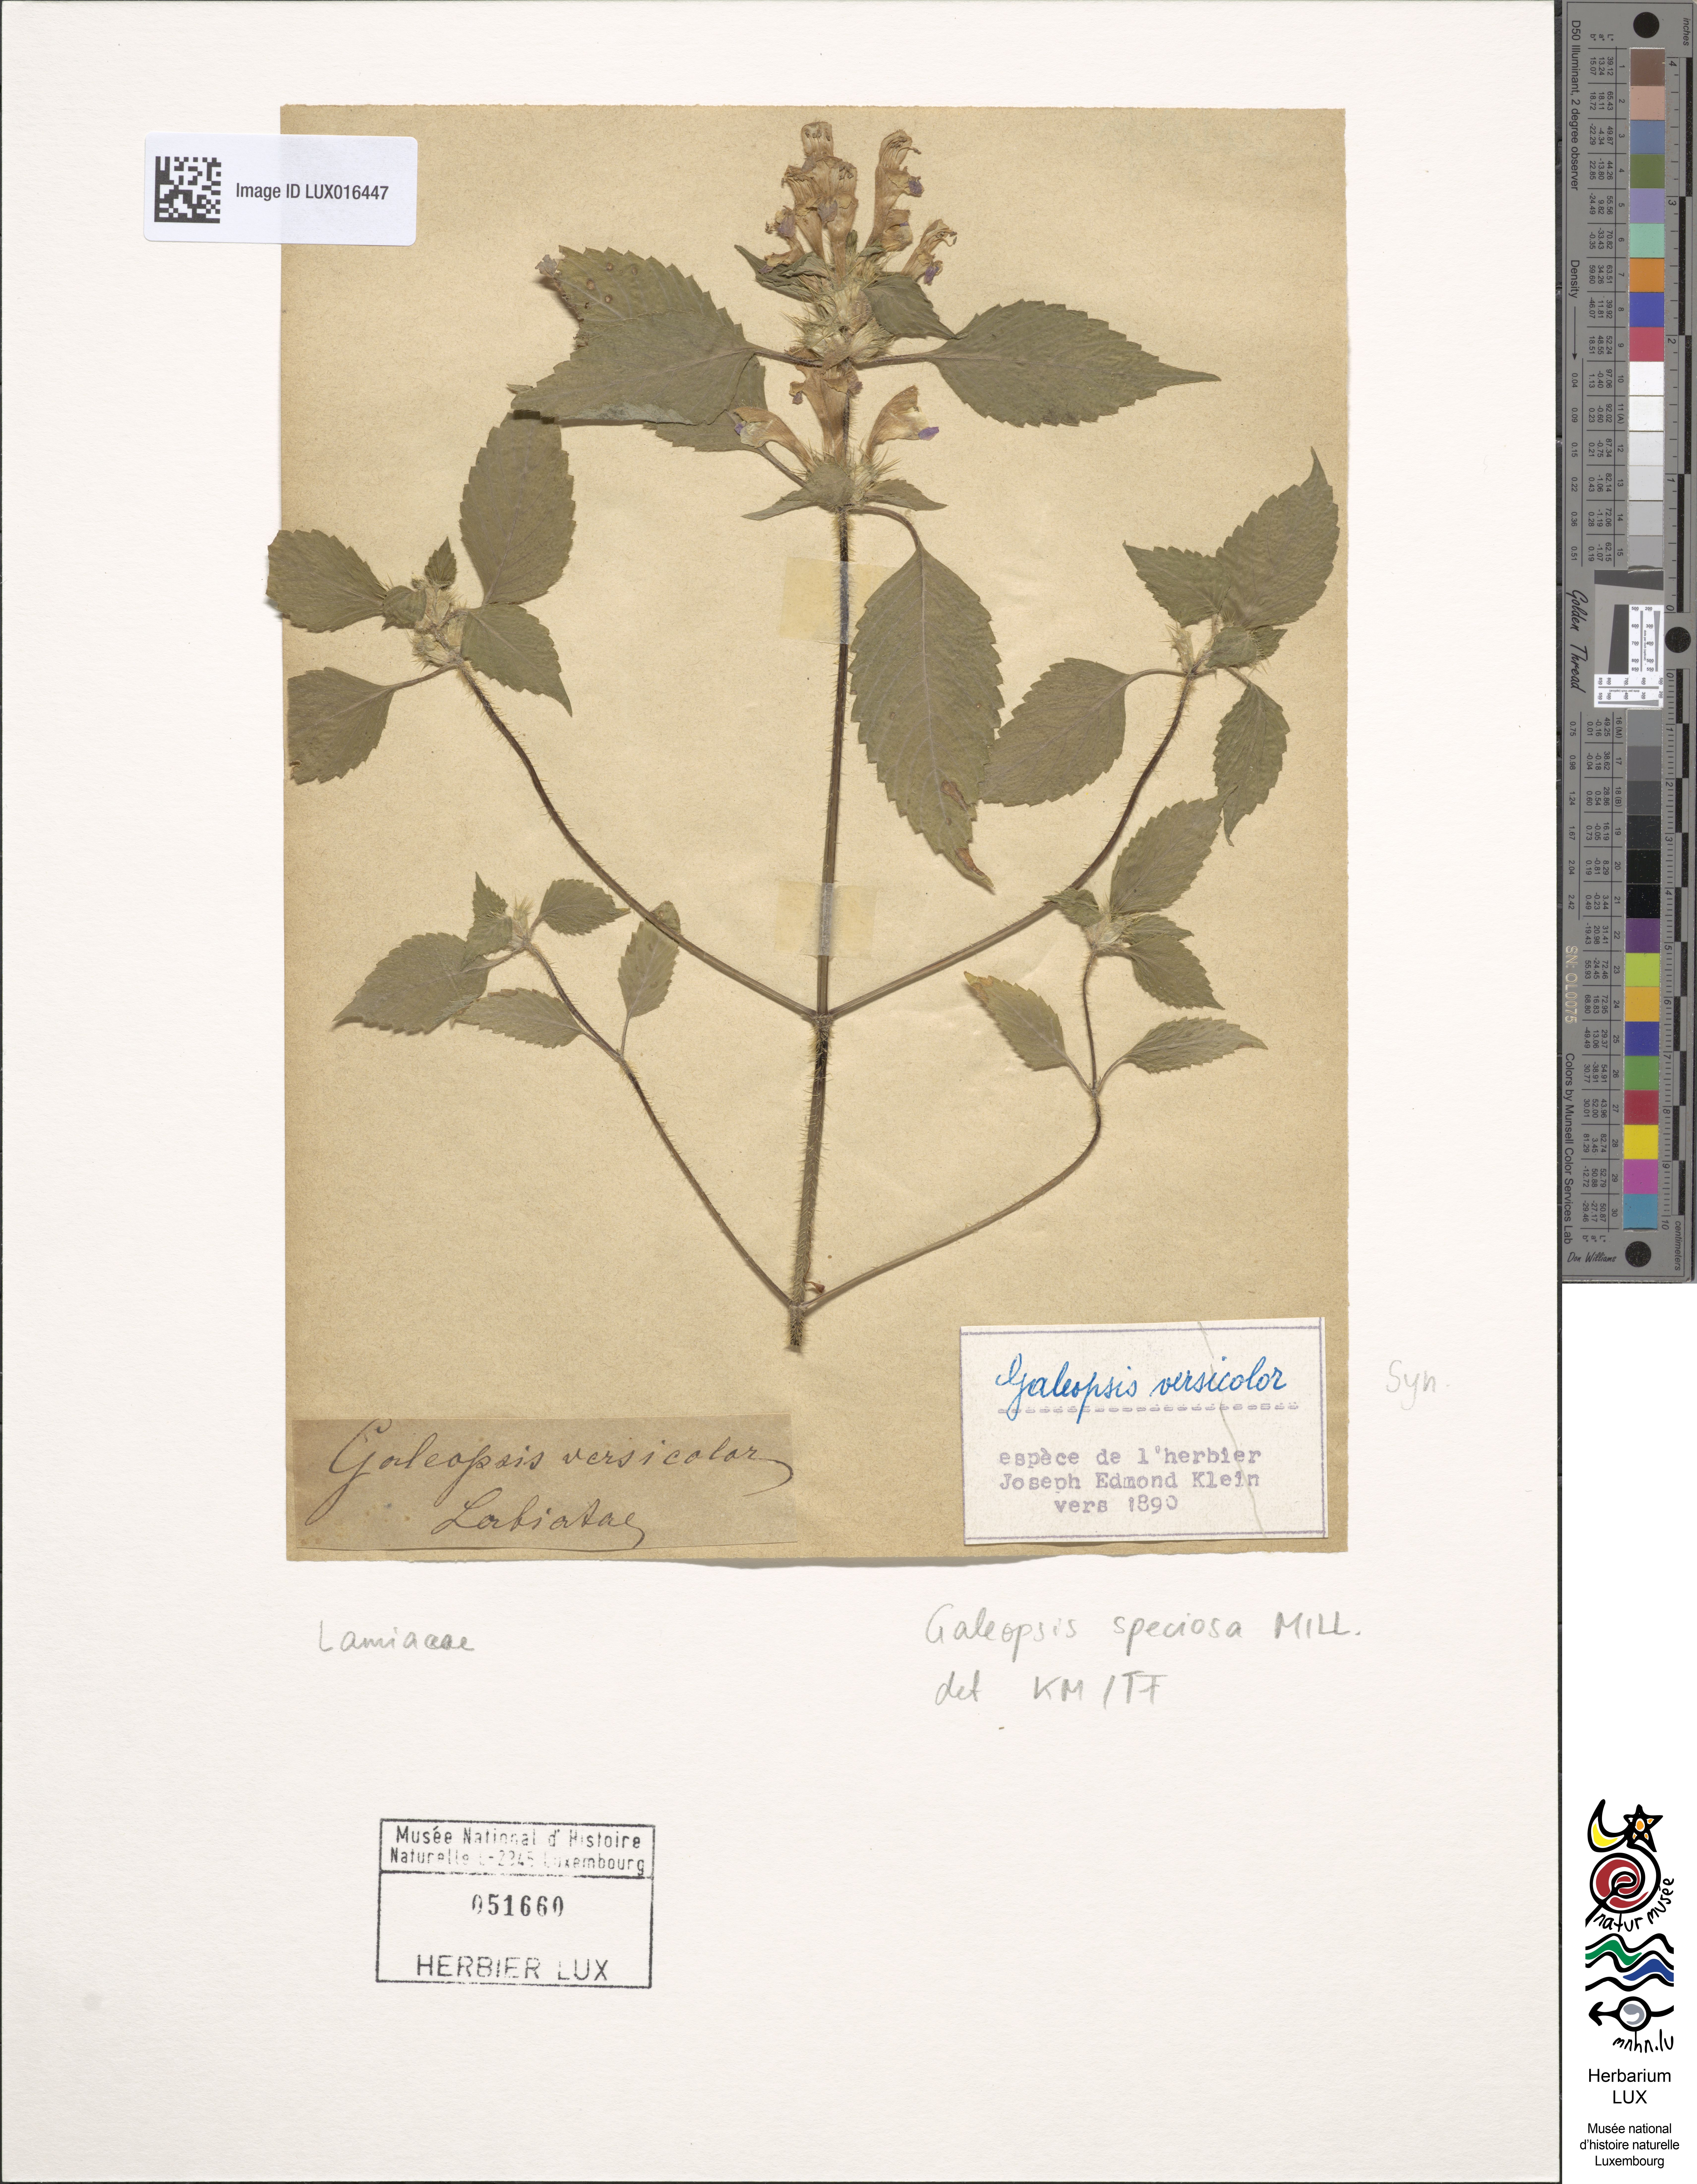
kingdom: Plantae
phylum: Tracheophyta
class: Magnoliopsida
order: Lamiales
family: Lamiaceae
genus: Galeopsis
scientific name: Galeopsis speciosa
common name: Large-flowered hemp-nettle
